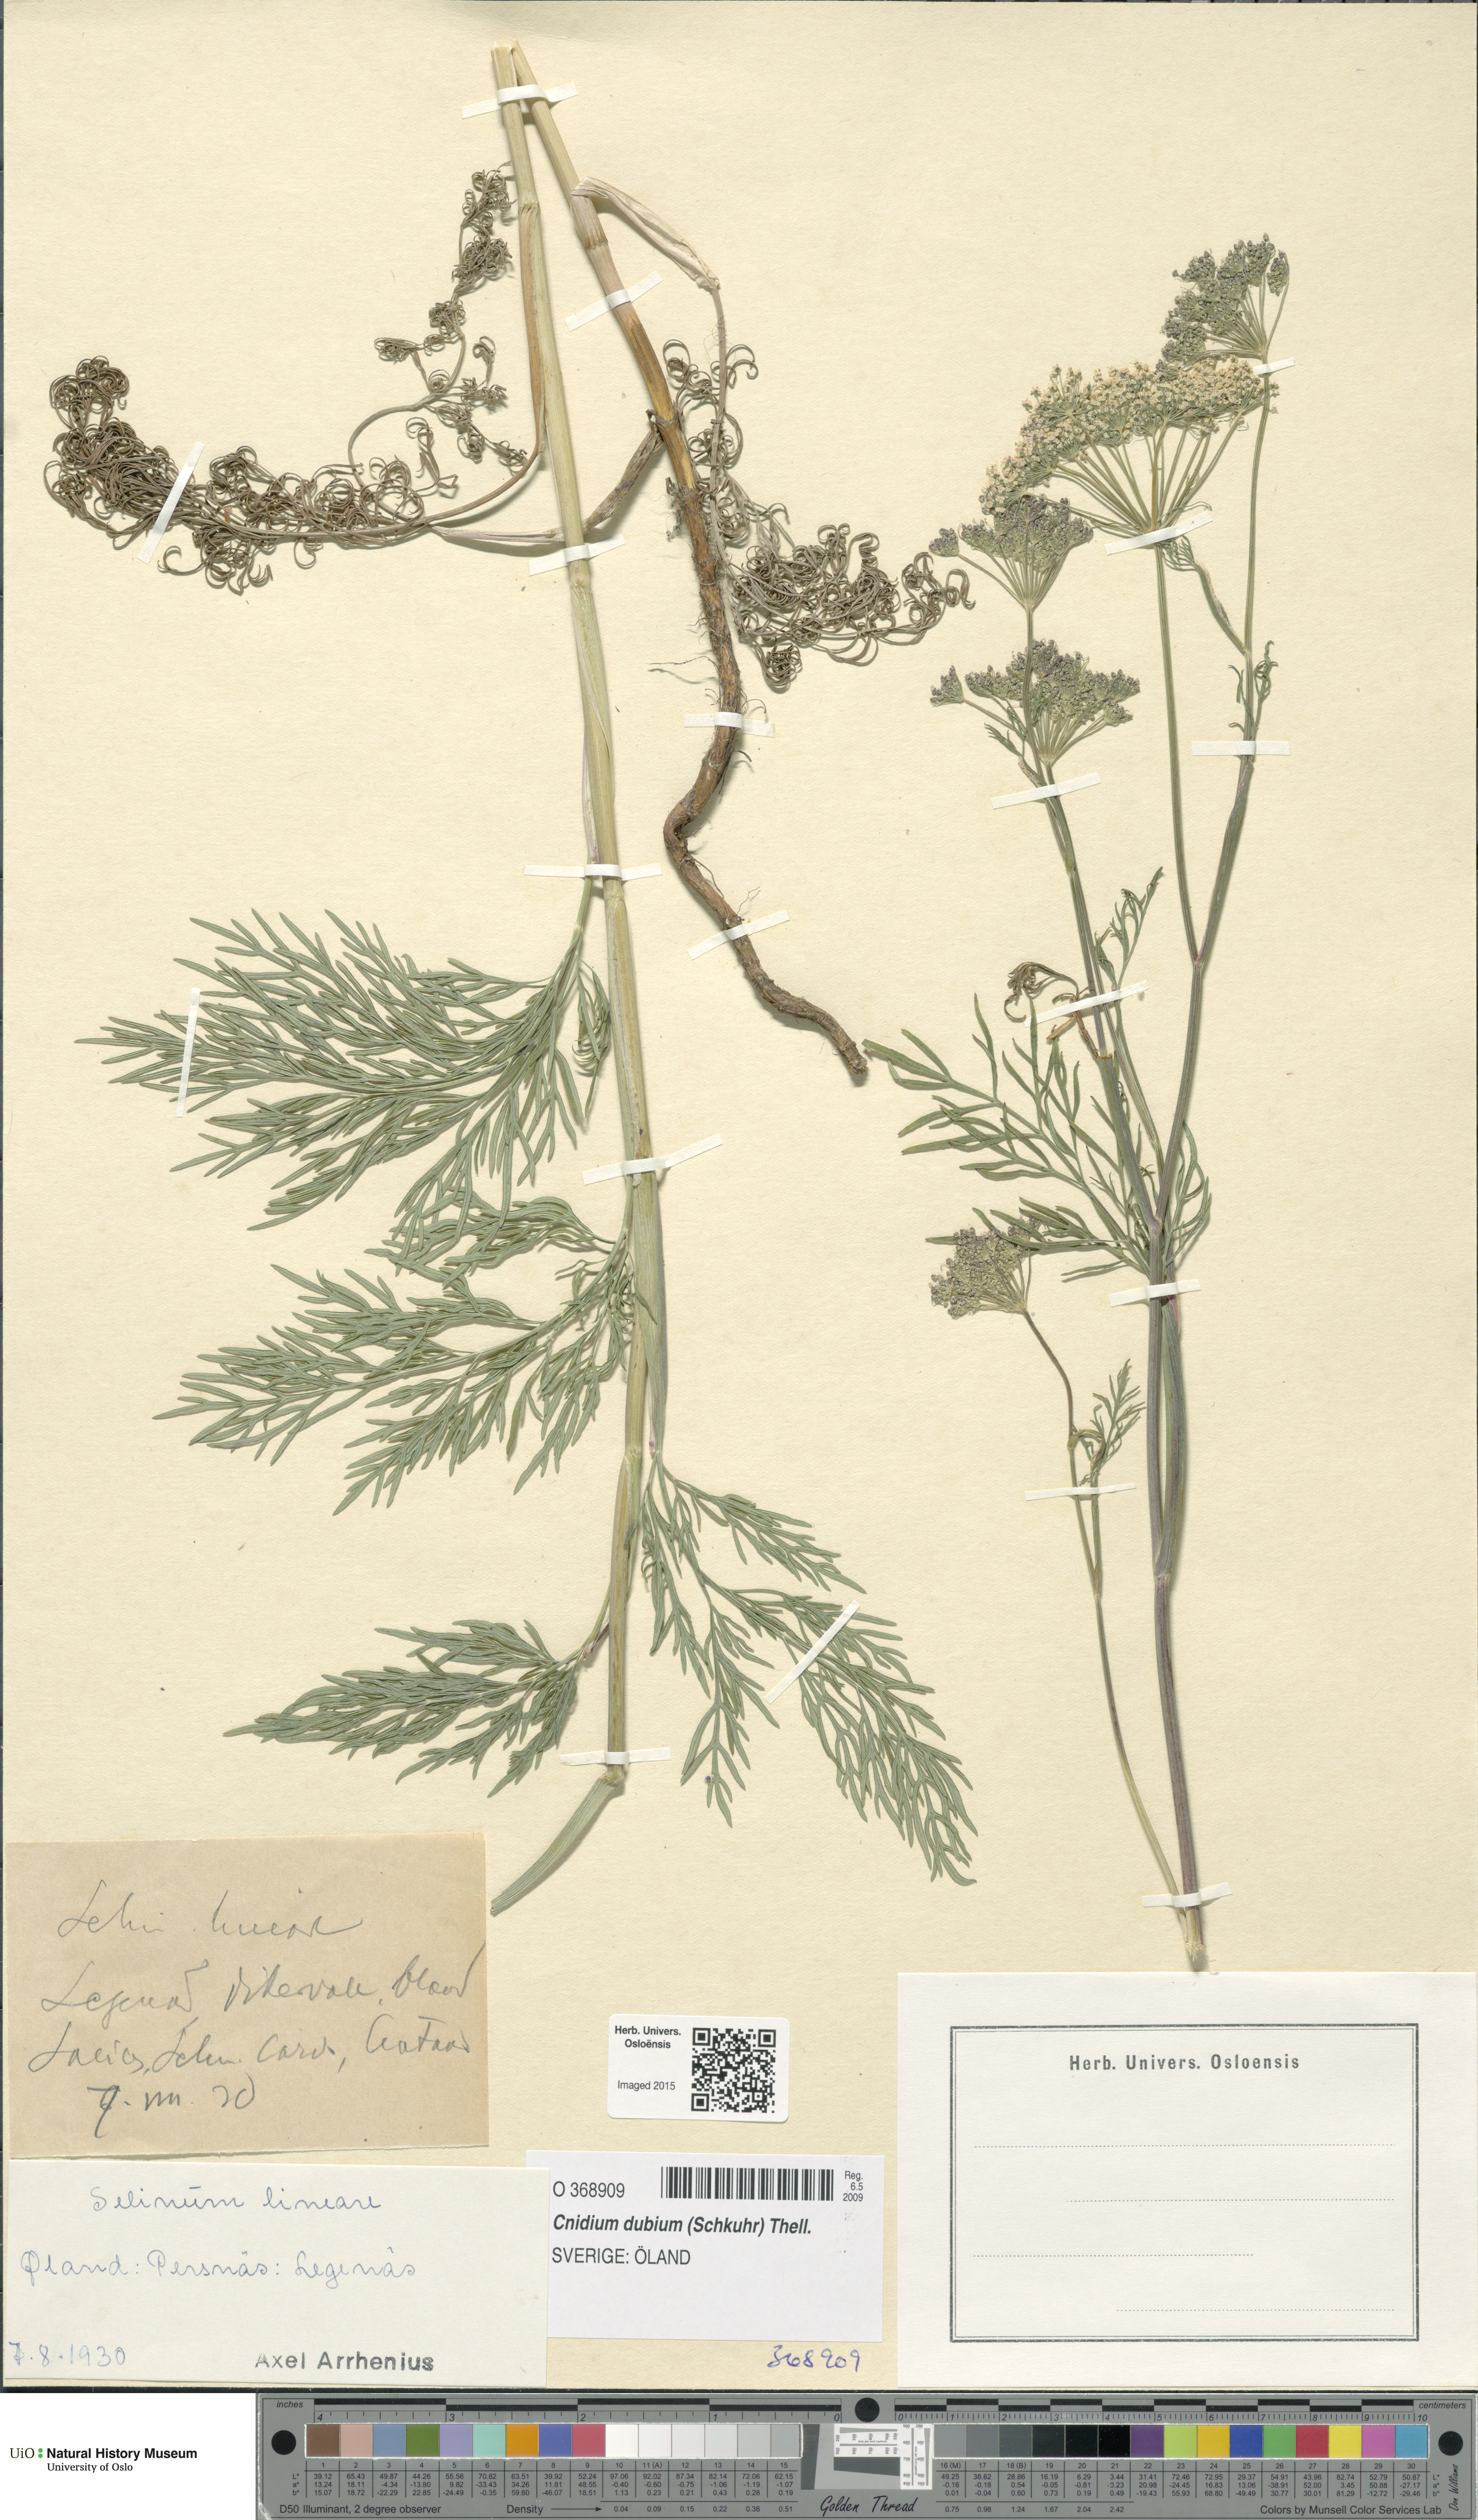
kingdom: Plantae
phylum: Tracheophyta
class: Magnoliopsida
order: Apiales
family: Apiaceae
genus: Kadenia
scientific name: Kadenia dubia
